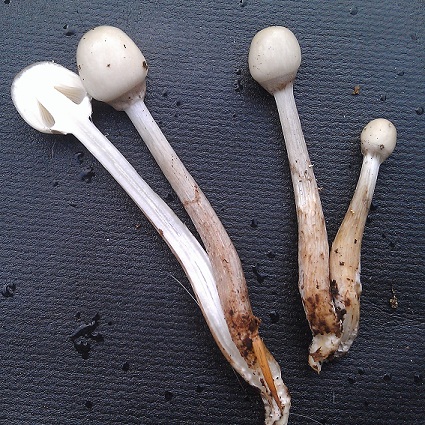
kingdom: Fungi
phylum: Basidiomycota
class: Agaricomycetes
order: Agaricales
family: Physalacriaceae
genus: Mucidula
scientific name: Mucidula mucida
